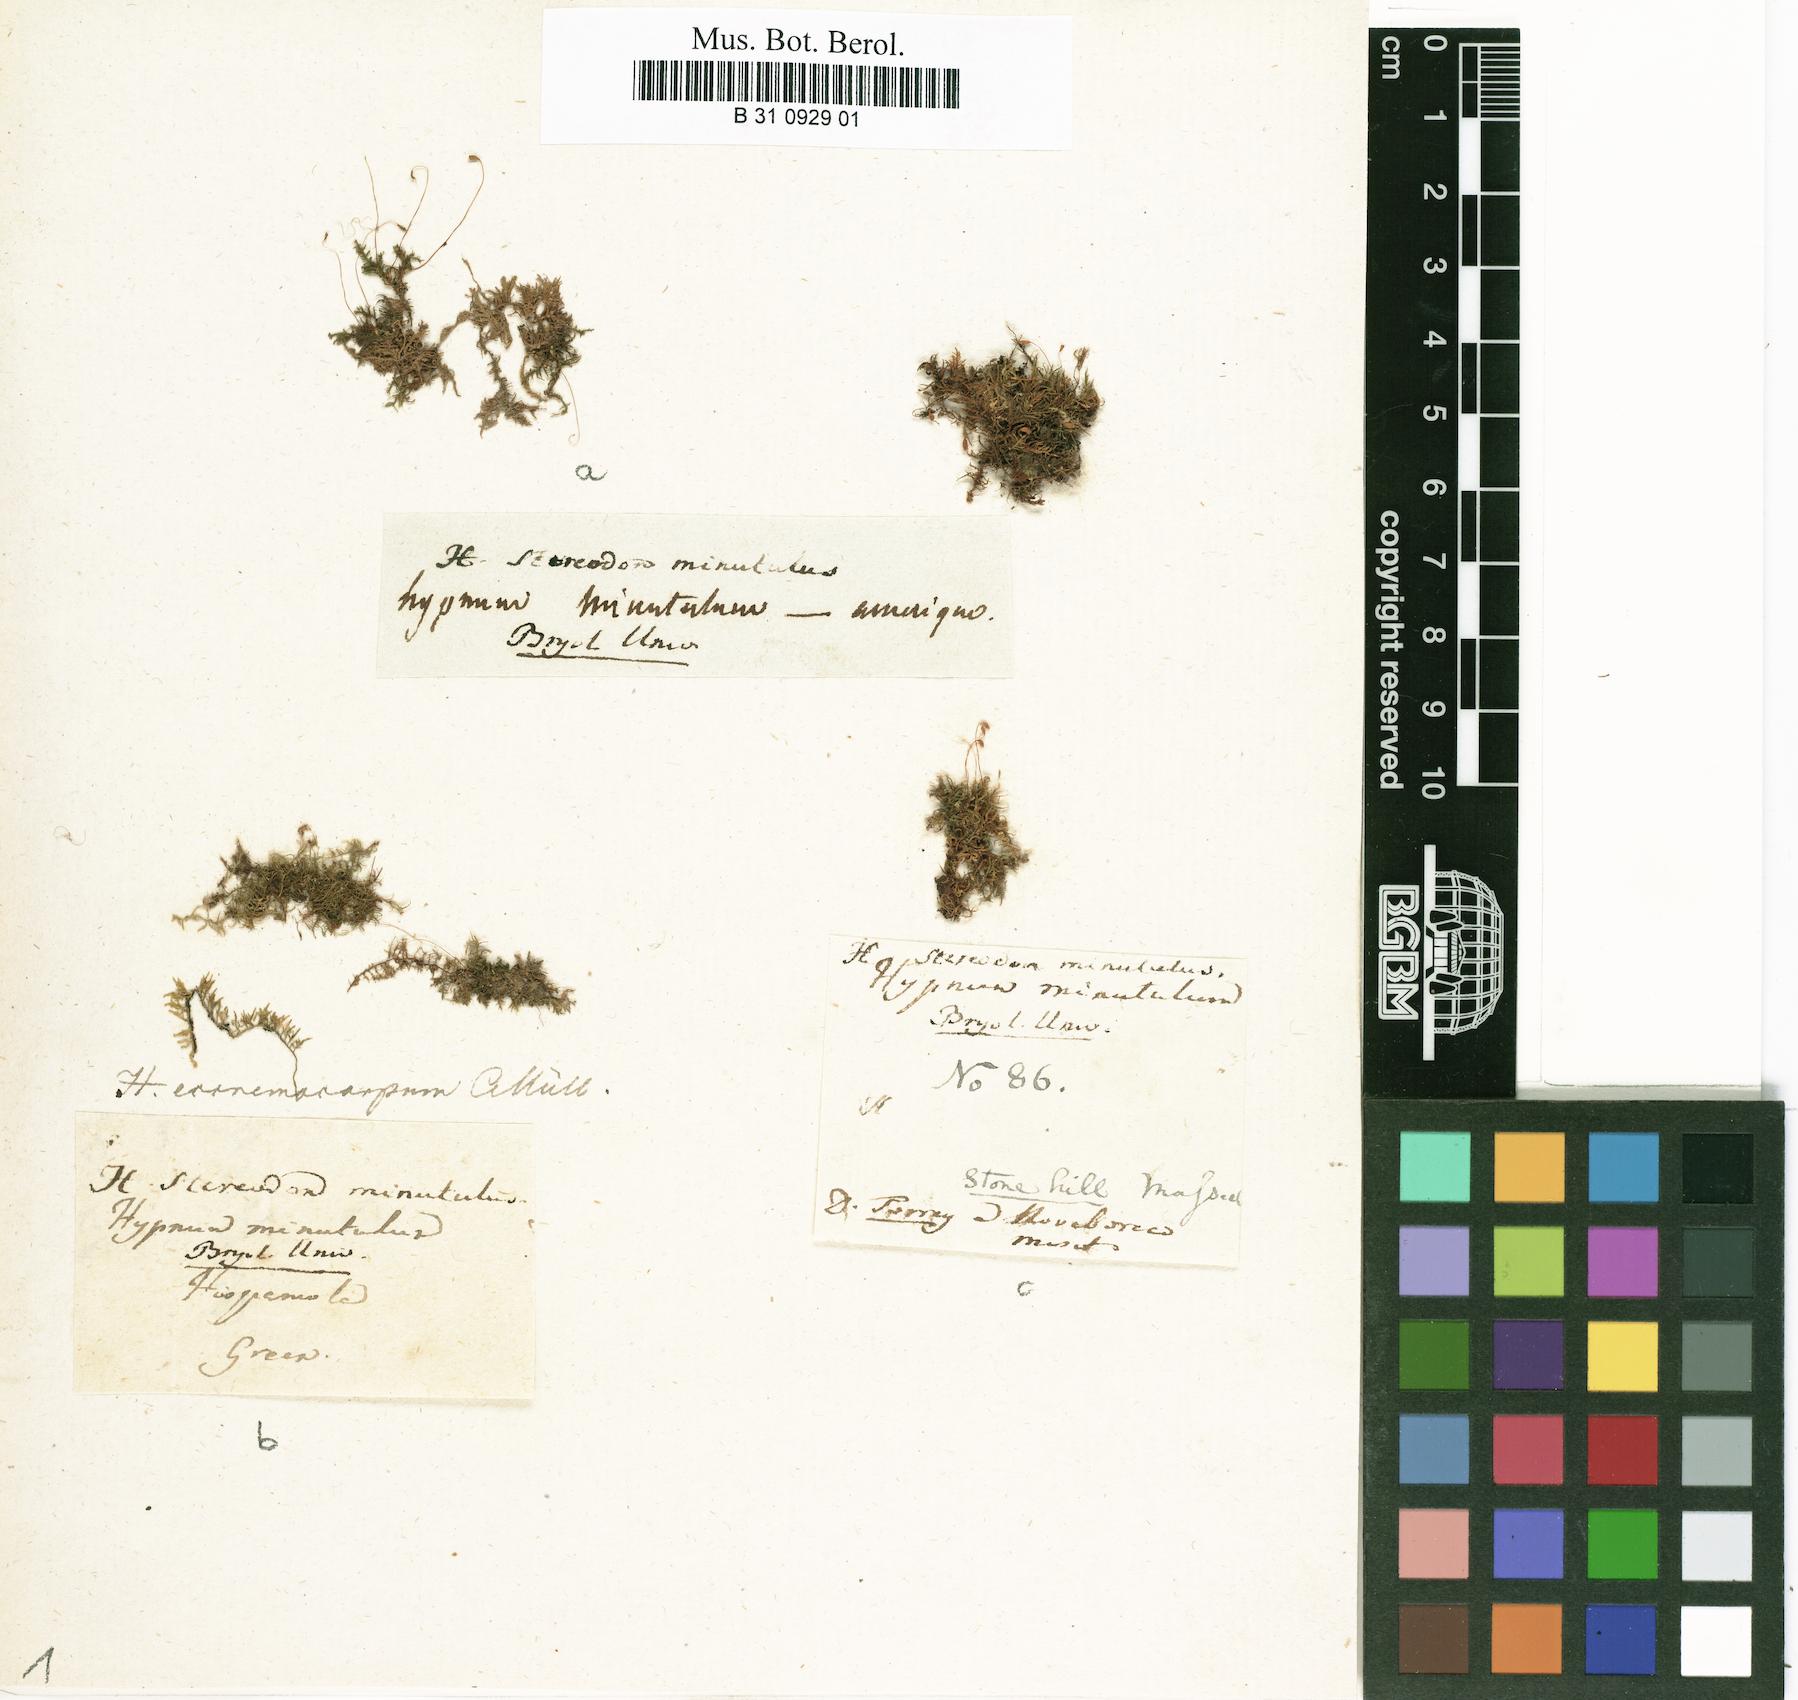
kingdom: Plantae
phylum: Bryophyta
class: Bryopsida
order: Hypnales
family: Thuidiaceae
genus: Pelekium
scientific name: Pelekium minutulum
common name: Tiny cedar moss
